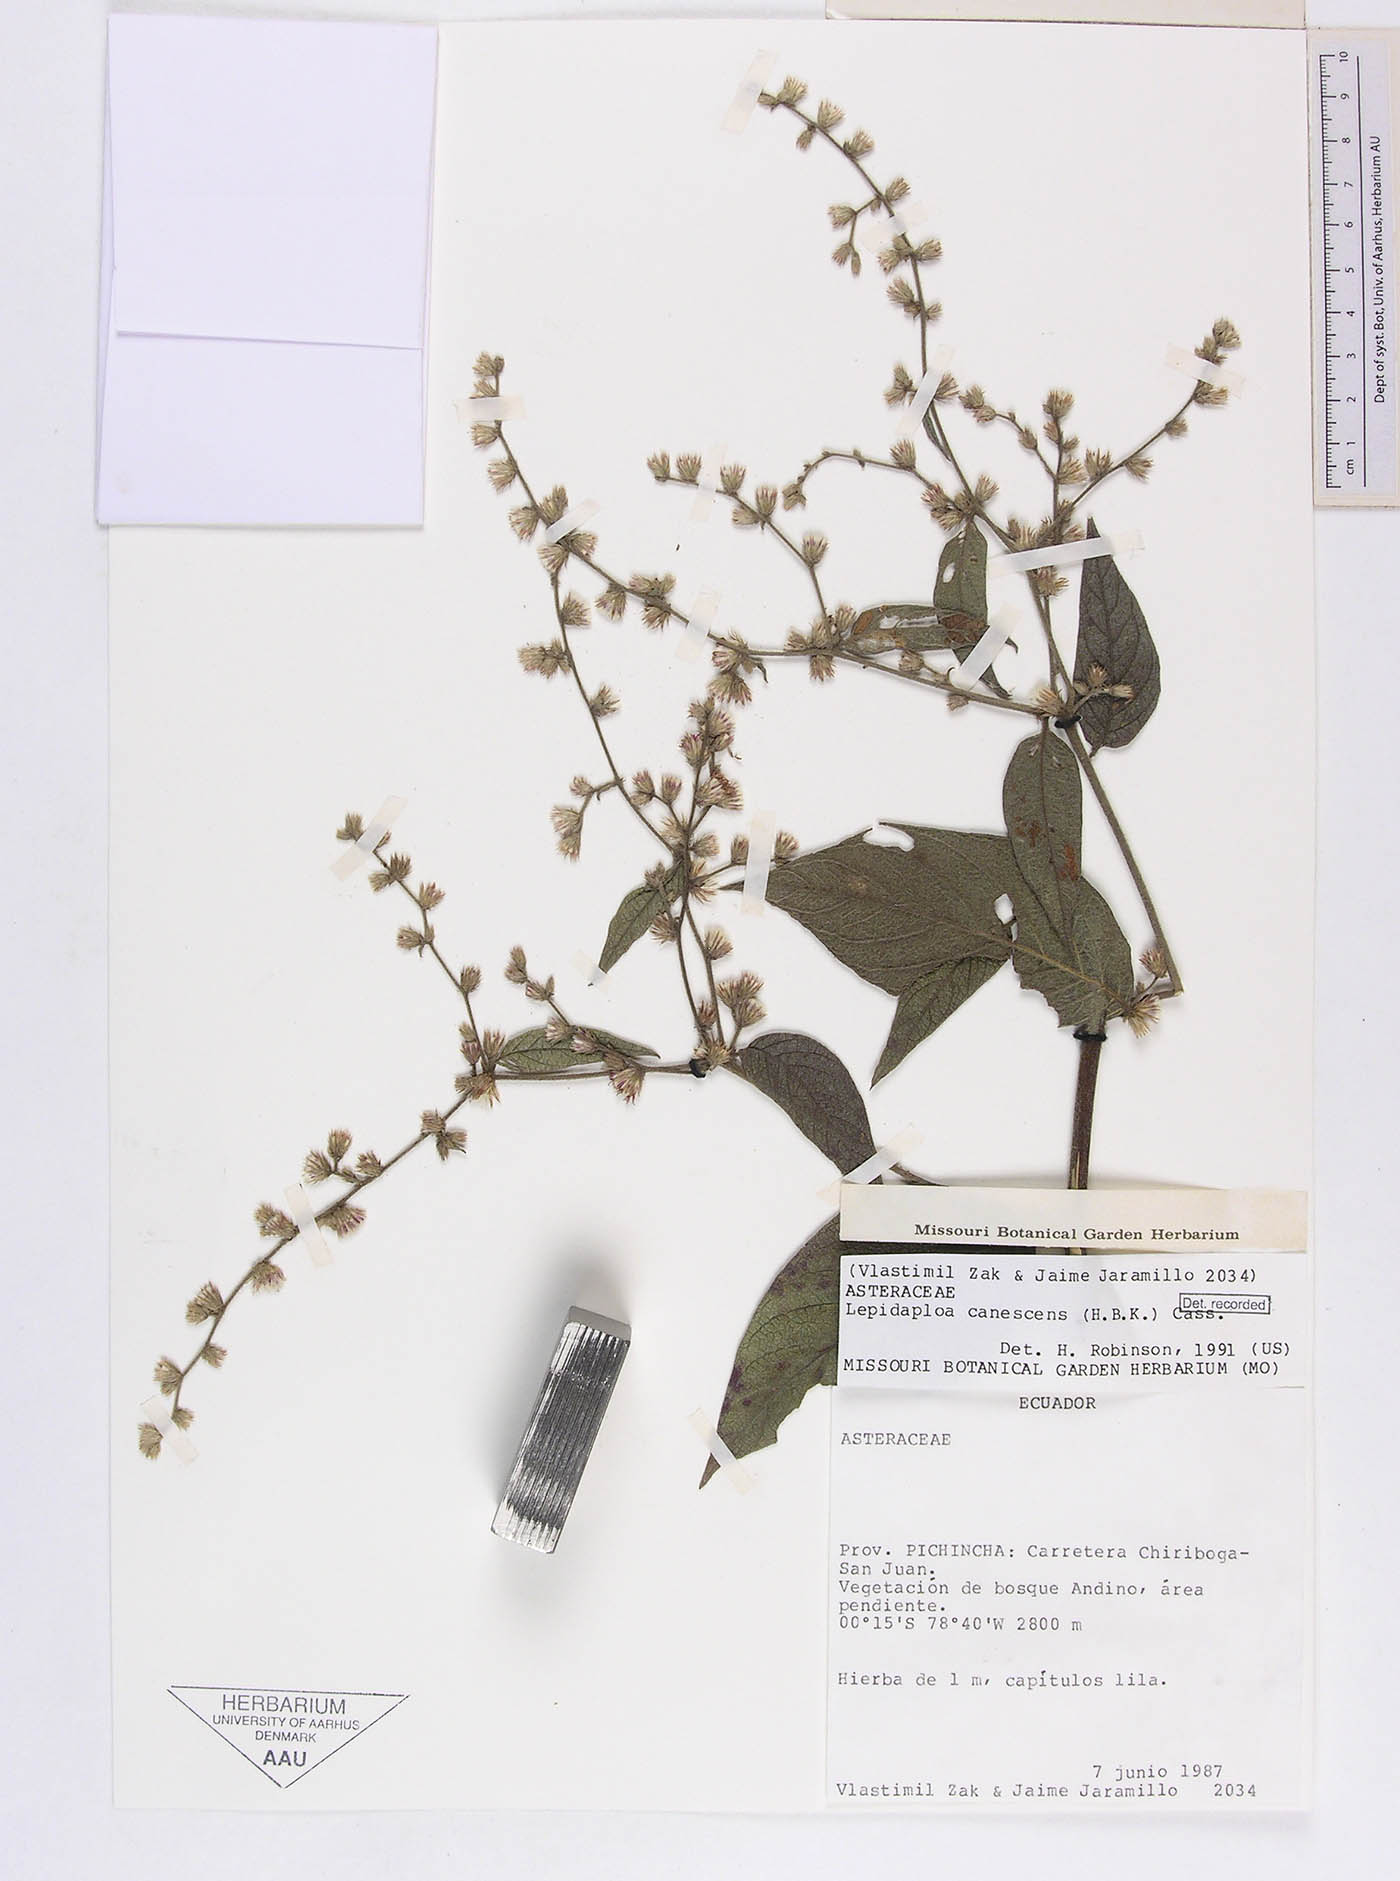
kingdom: Plantae
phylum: Tracheophyta
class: Magnoliopsida
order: Asterales
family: Asteraceae
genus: Lepidaploa
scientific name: Lepidaploa canescens
